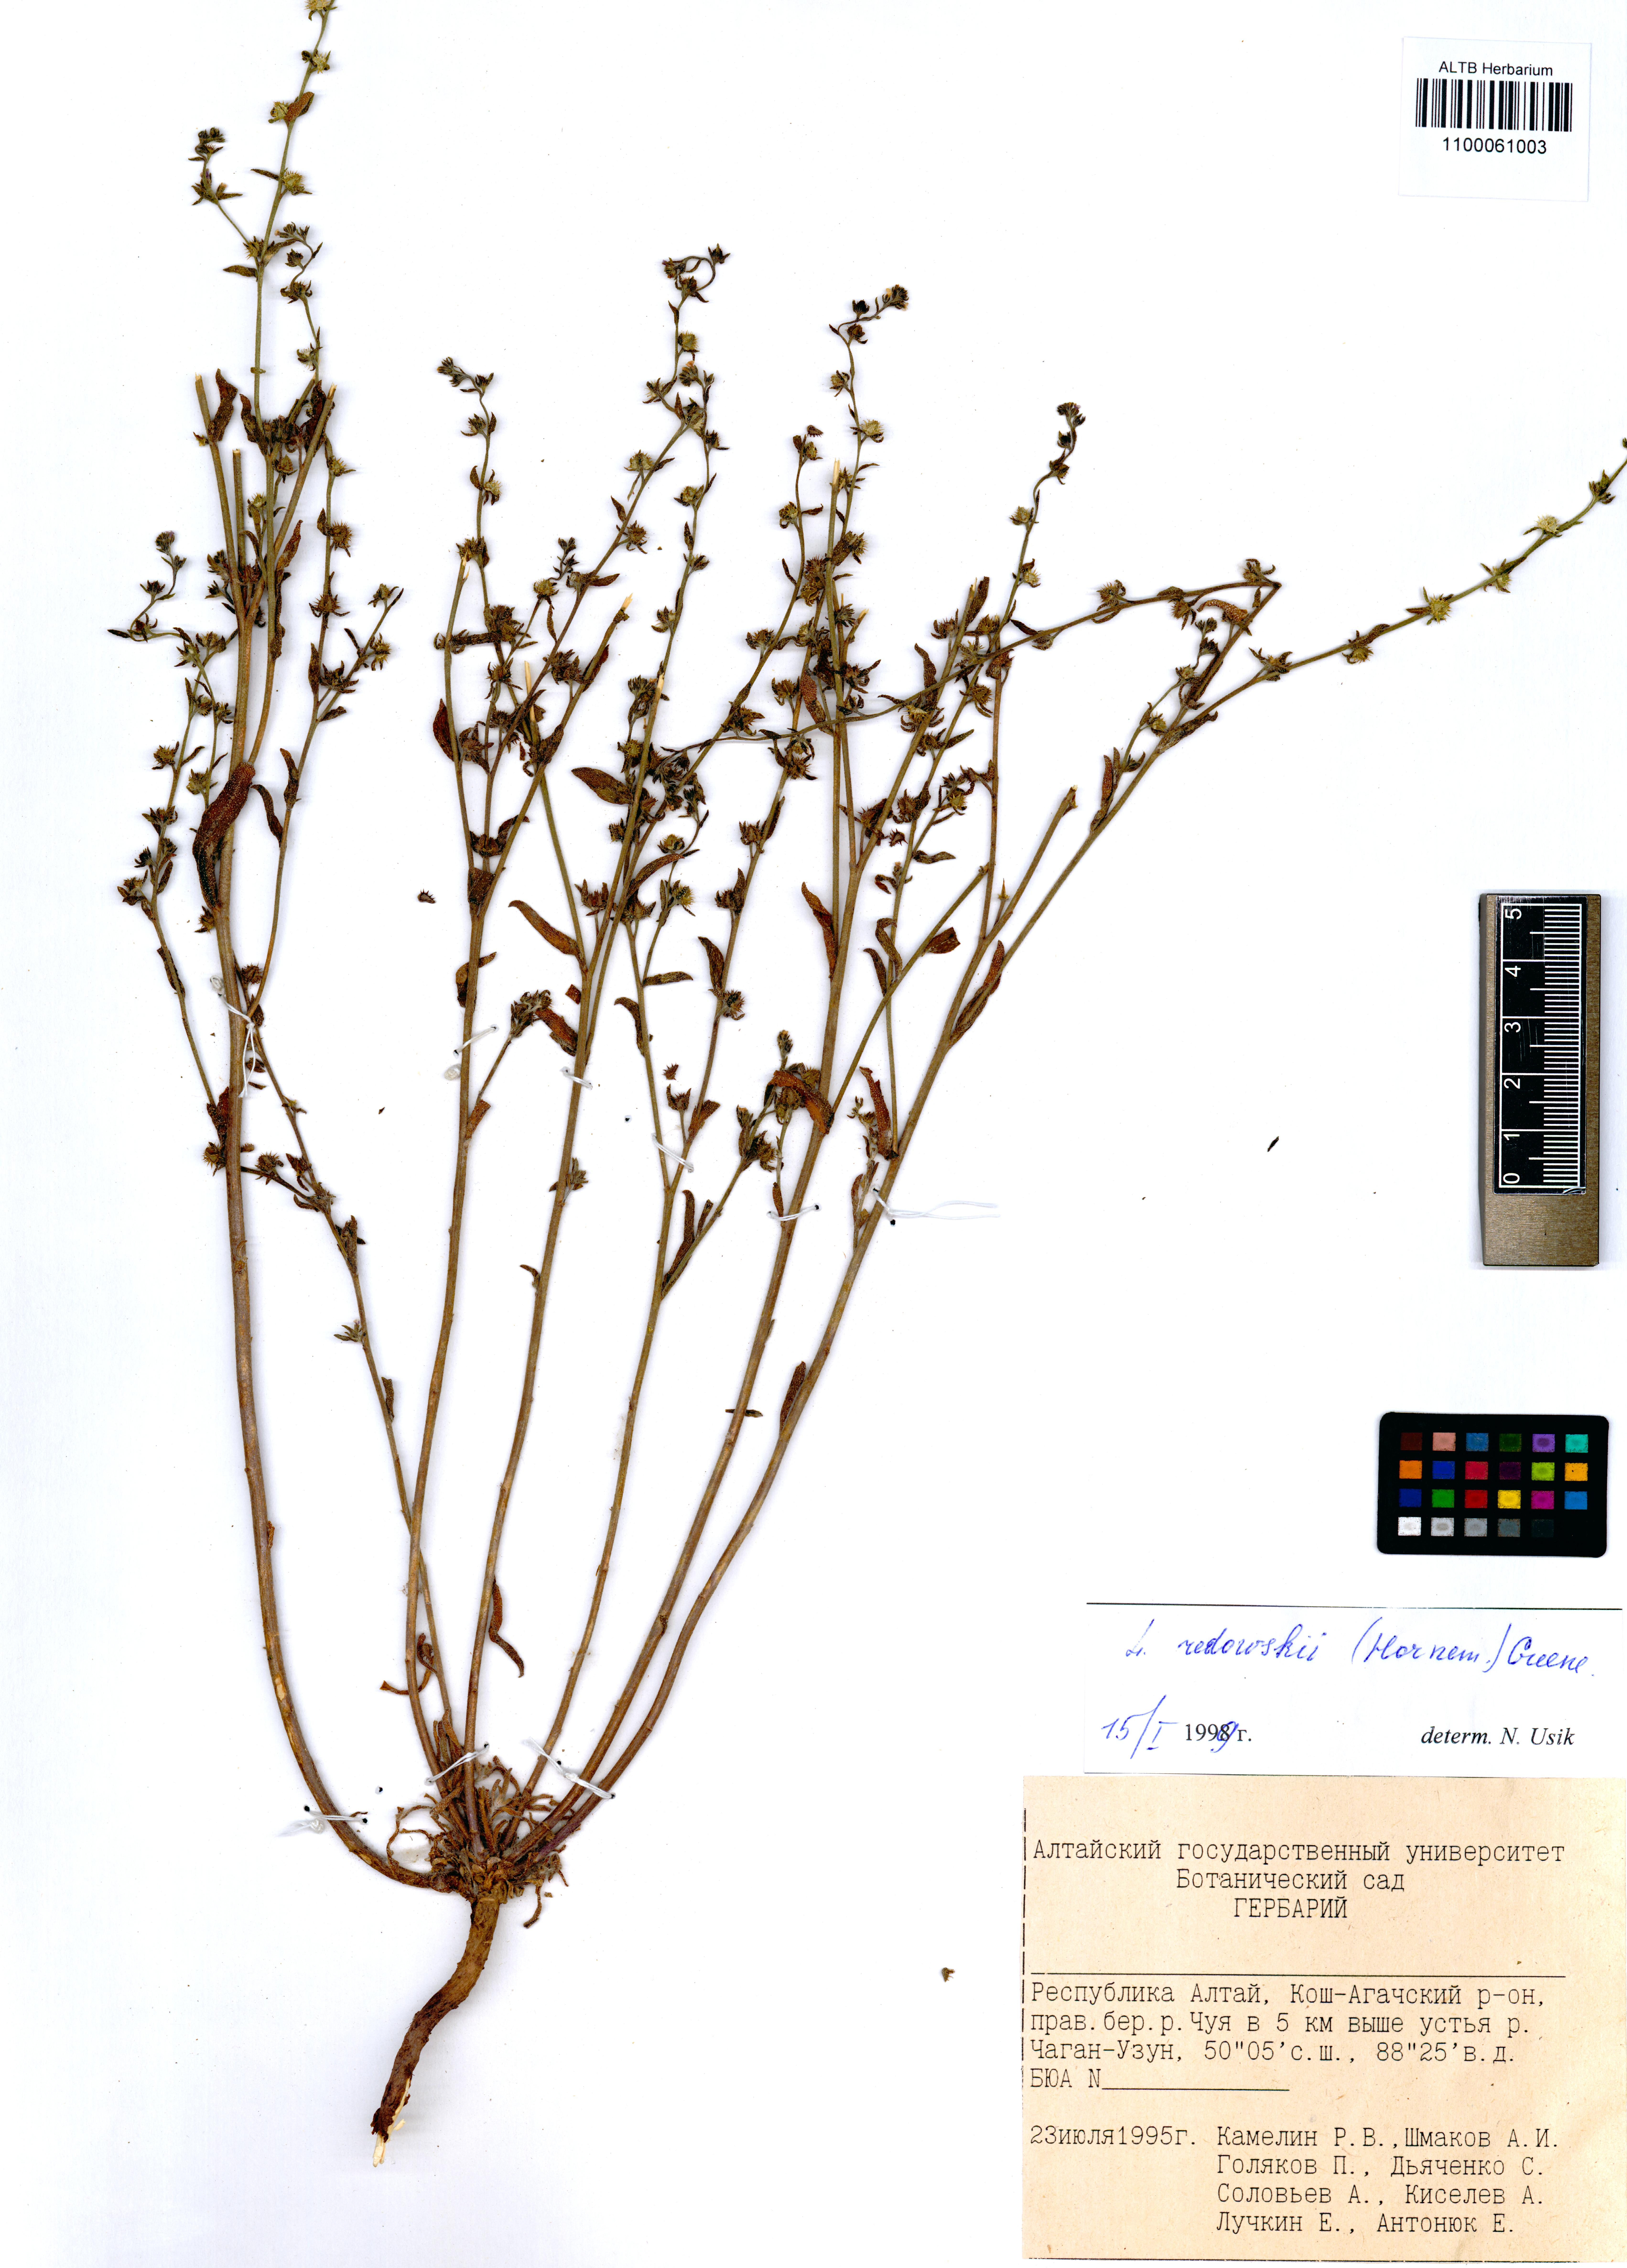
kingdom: Plantae
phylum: Tracheophyta
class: Magnoliopsida
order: Boraginales
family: Boraginaceae
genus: Lappula
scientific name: Lappula redowskii
